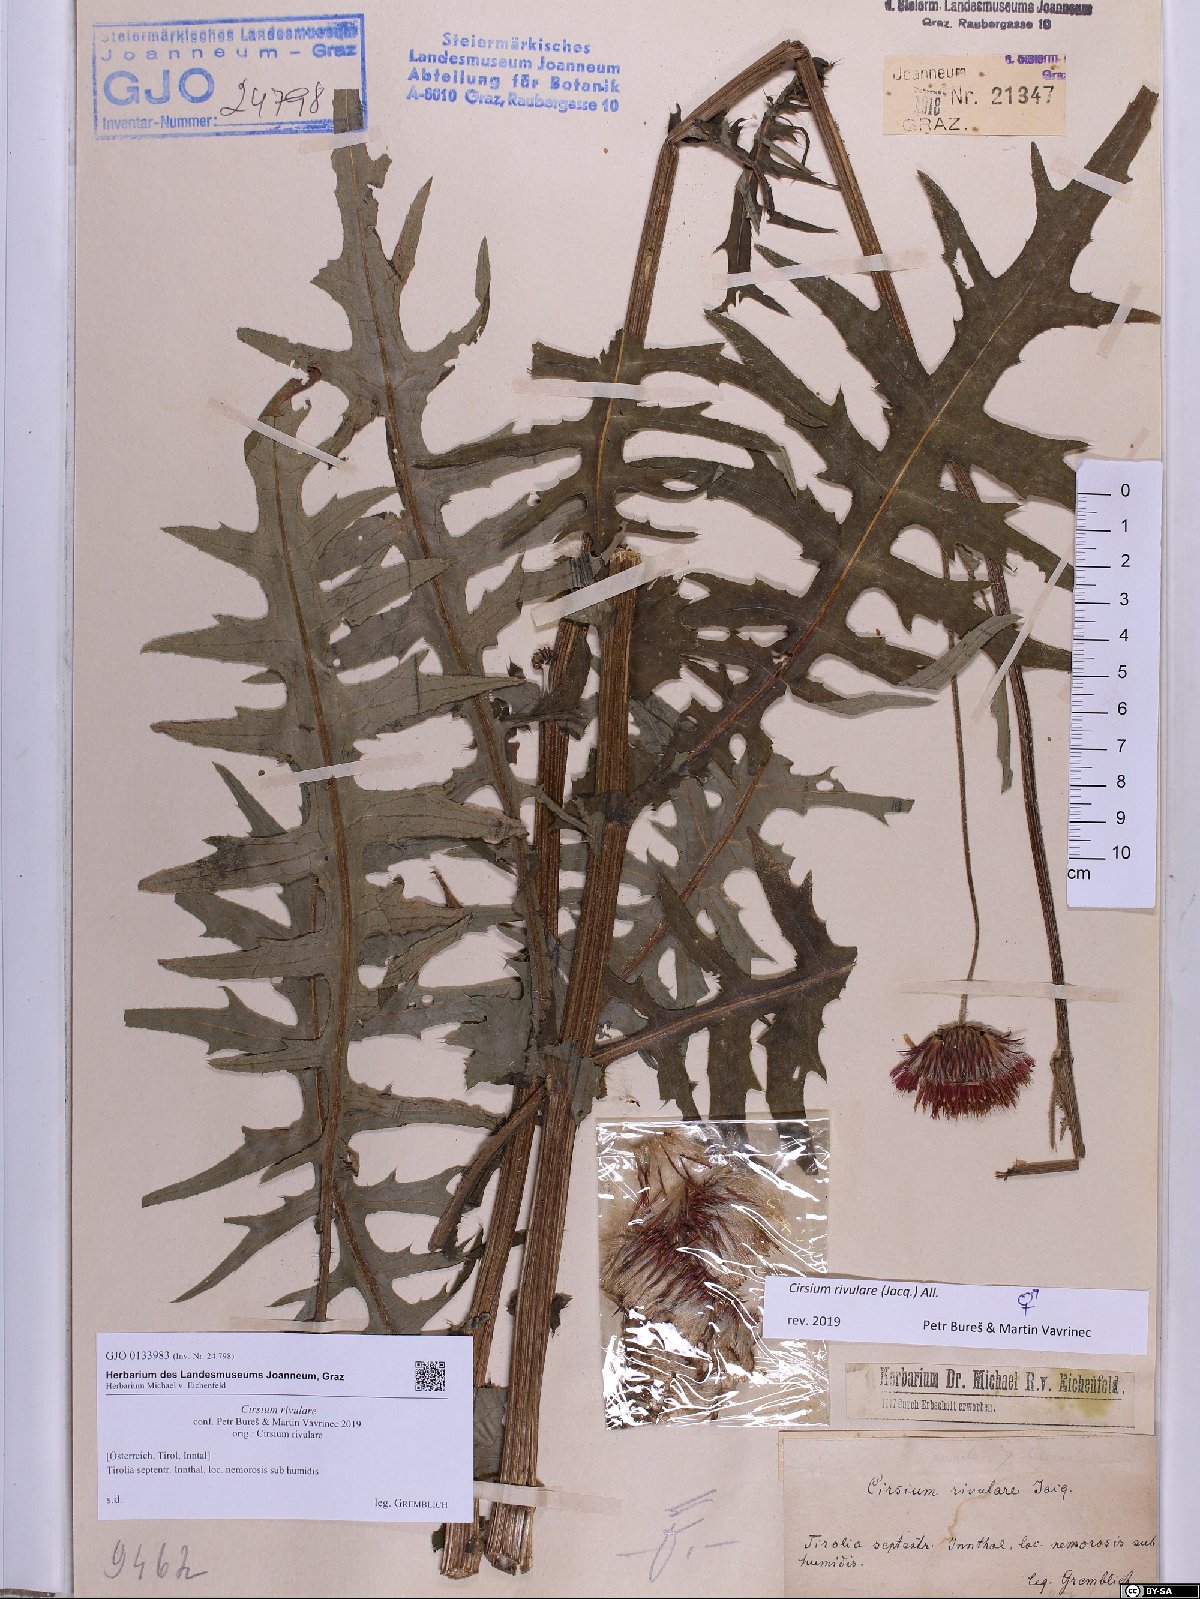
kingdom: Plantae
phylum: Tracheophyta
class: Magnoliopsida
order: Asterales
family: Asteraceae
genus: Cirsium
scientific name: Cirsium rivulare
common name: Brook thistle
